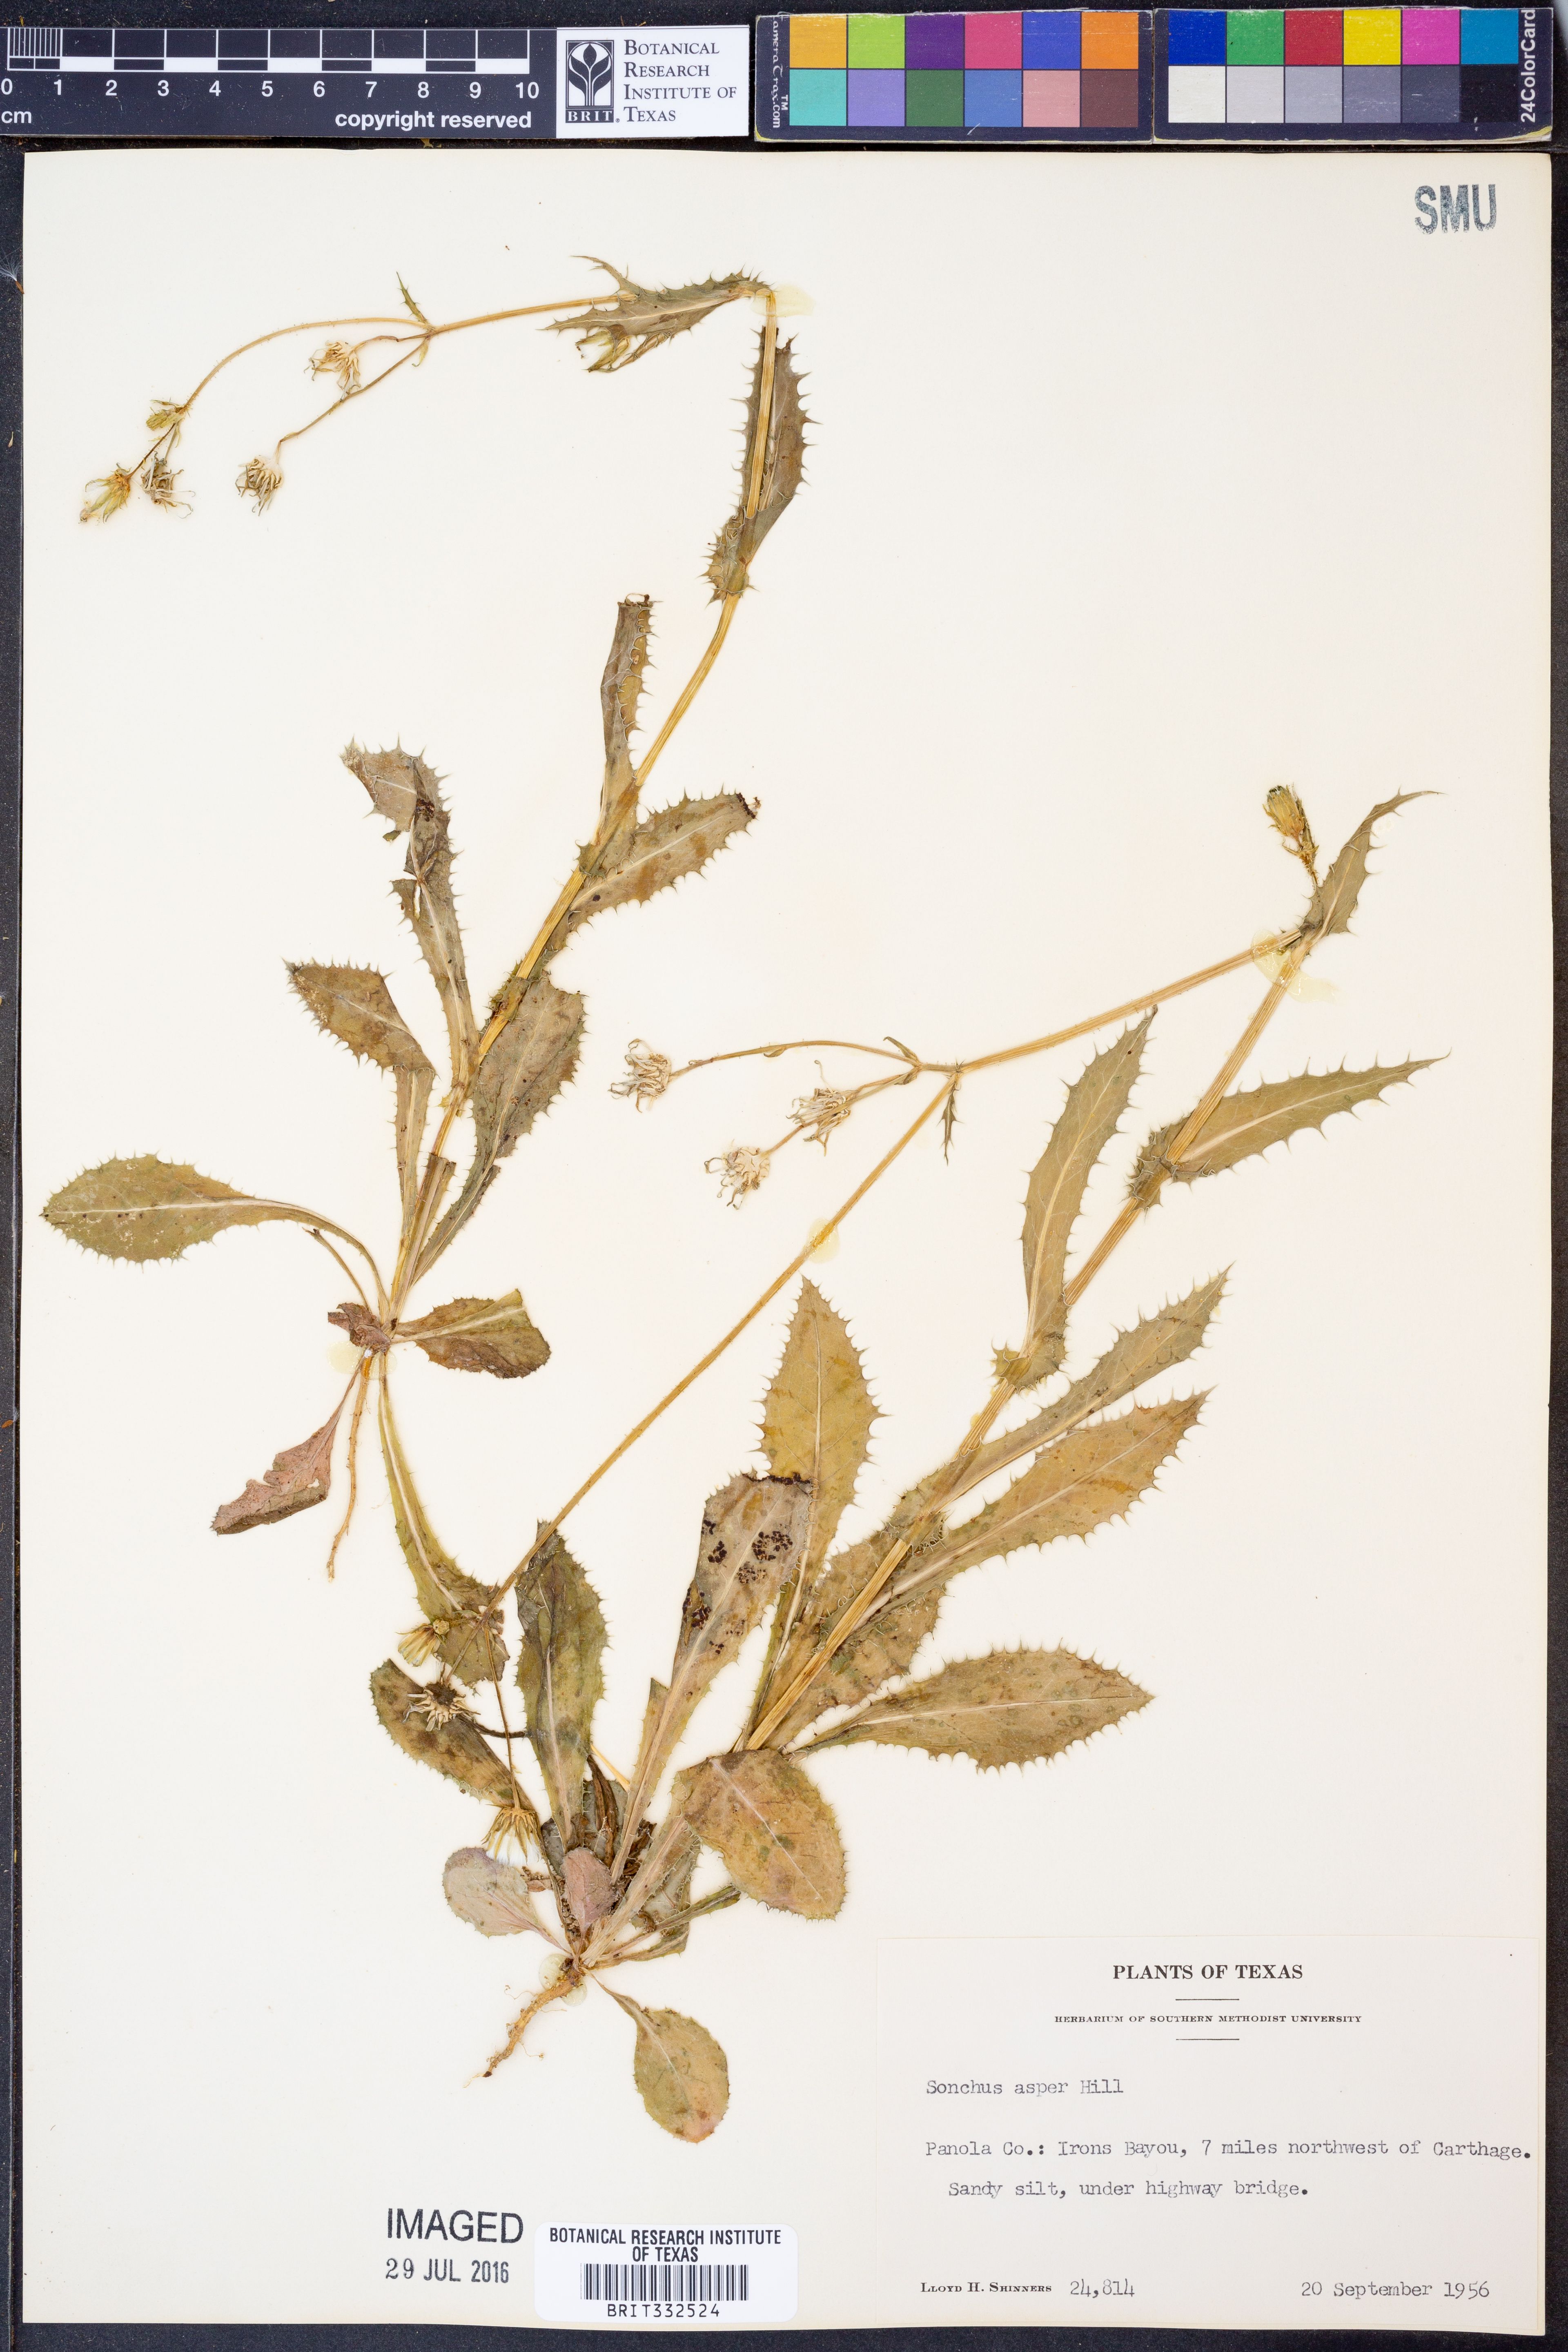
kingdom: Plantae
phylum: Tracheophyta
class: Magnoliopsida
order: Asterales
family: Asteraceae
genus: Sonchus
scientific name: Sonchus asper
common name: Prickly sow-thistle
